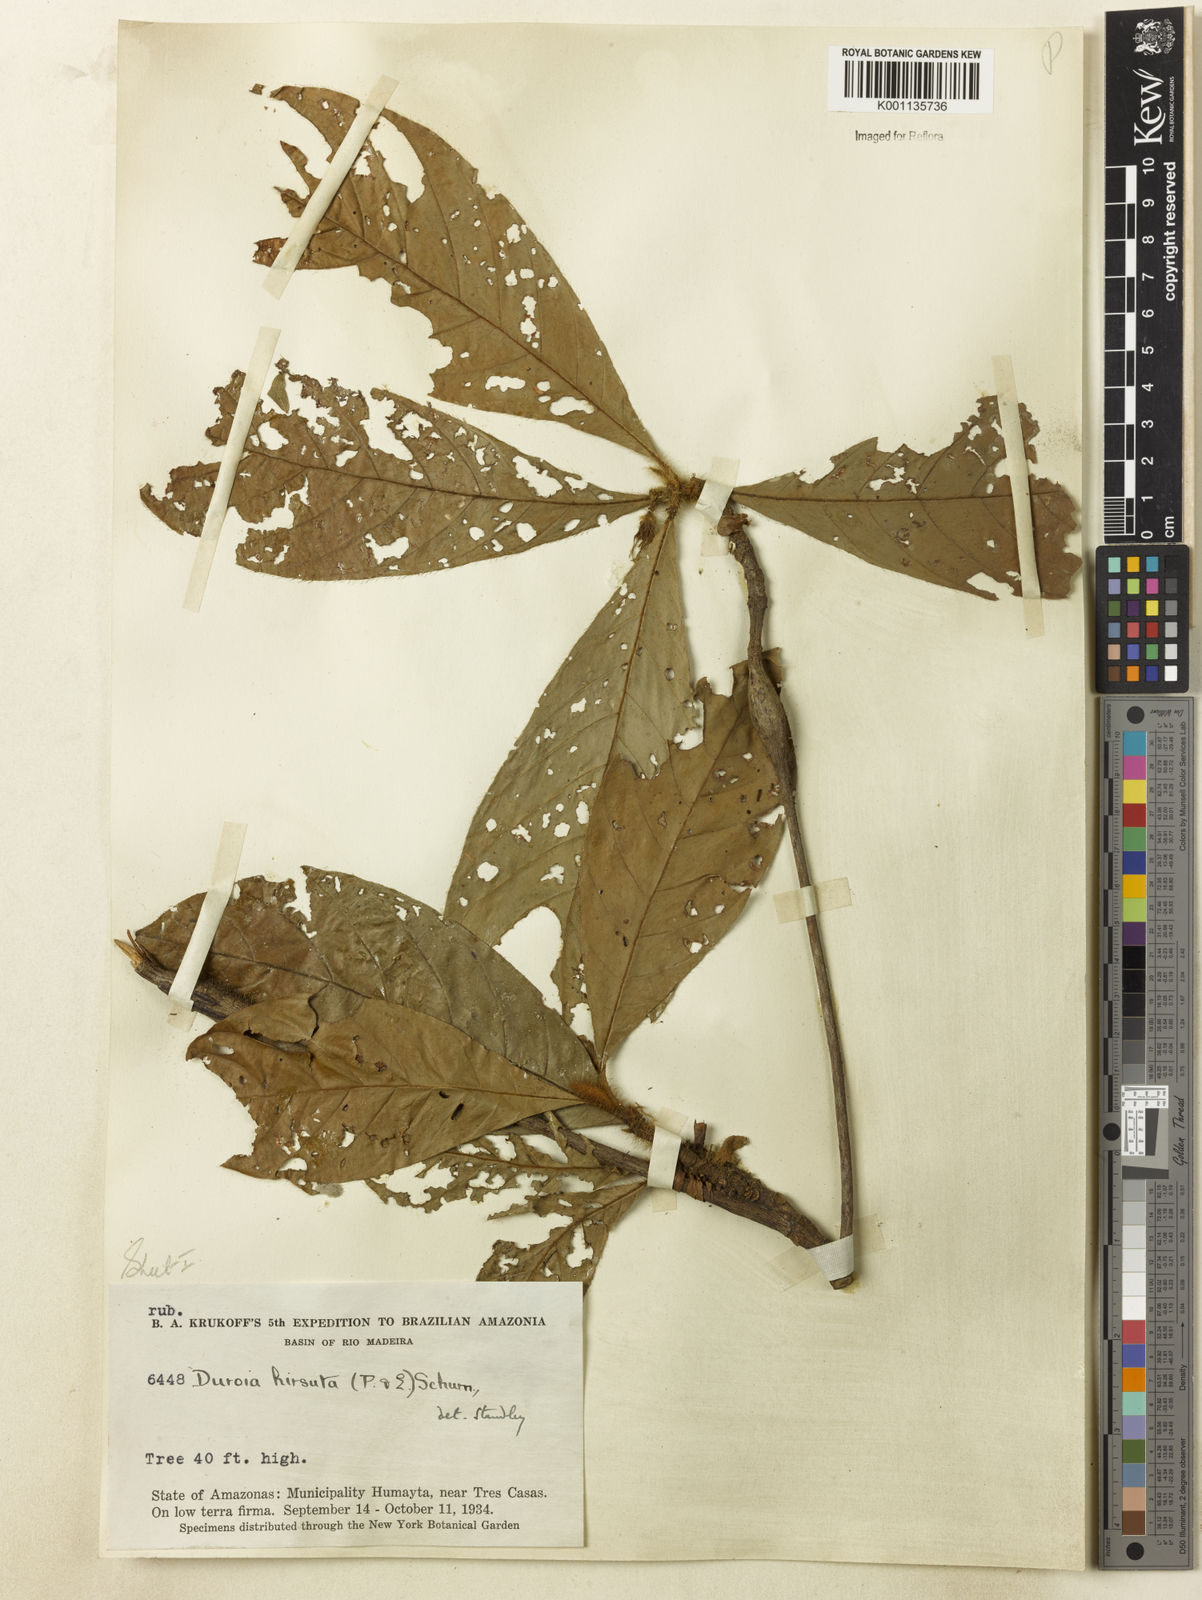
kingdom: Plantae
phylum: Tracheophyta
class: Magnoliopsida
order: Gentianales
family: Rubiaceae
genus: Duroia
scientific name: Duroia hirsuta
